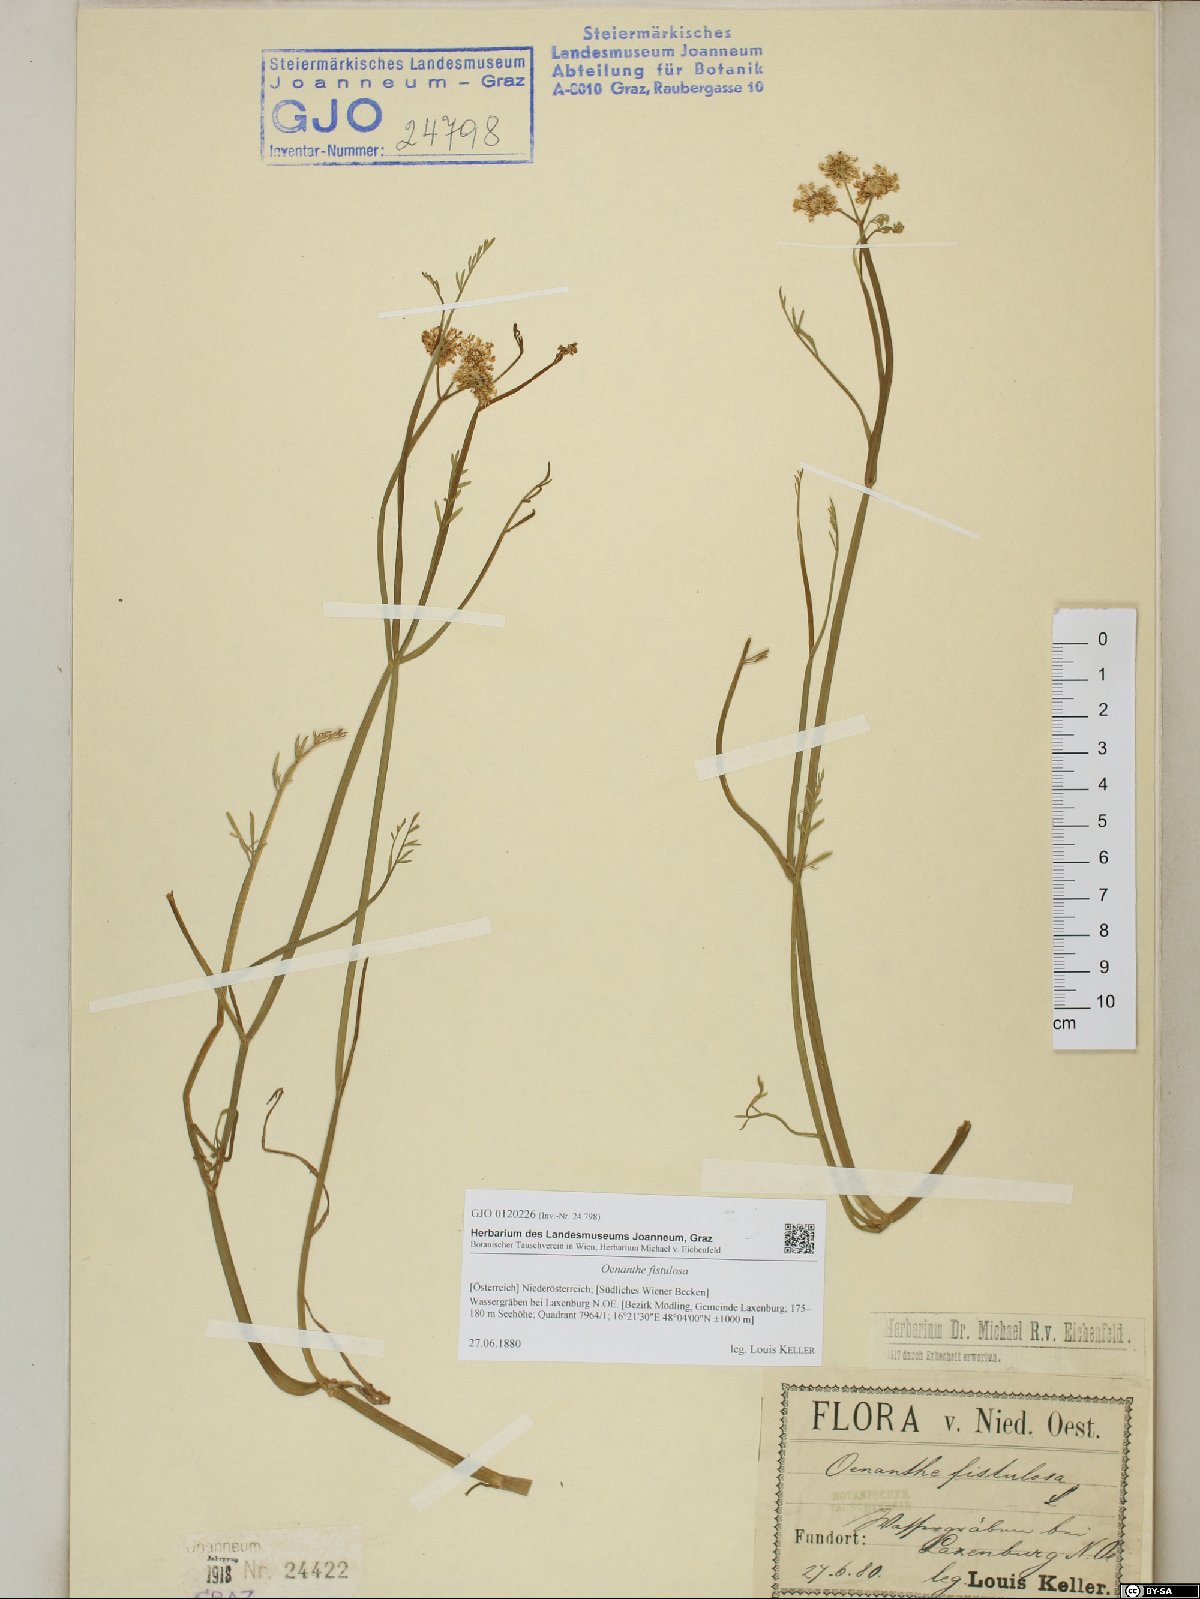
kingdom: Plantae
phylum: Tracheophyta
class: Magnoliopsida
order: Apiales
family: Apiaceae
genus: Oenanthe
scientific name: Oenanthe fistulosa
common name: Tubular water-dropwort
